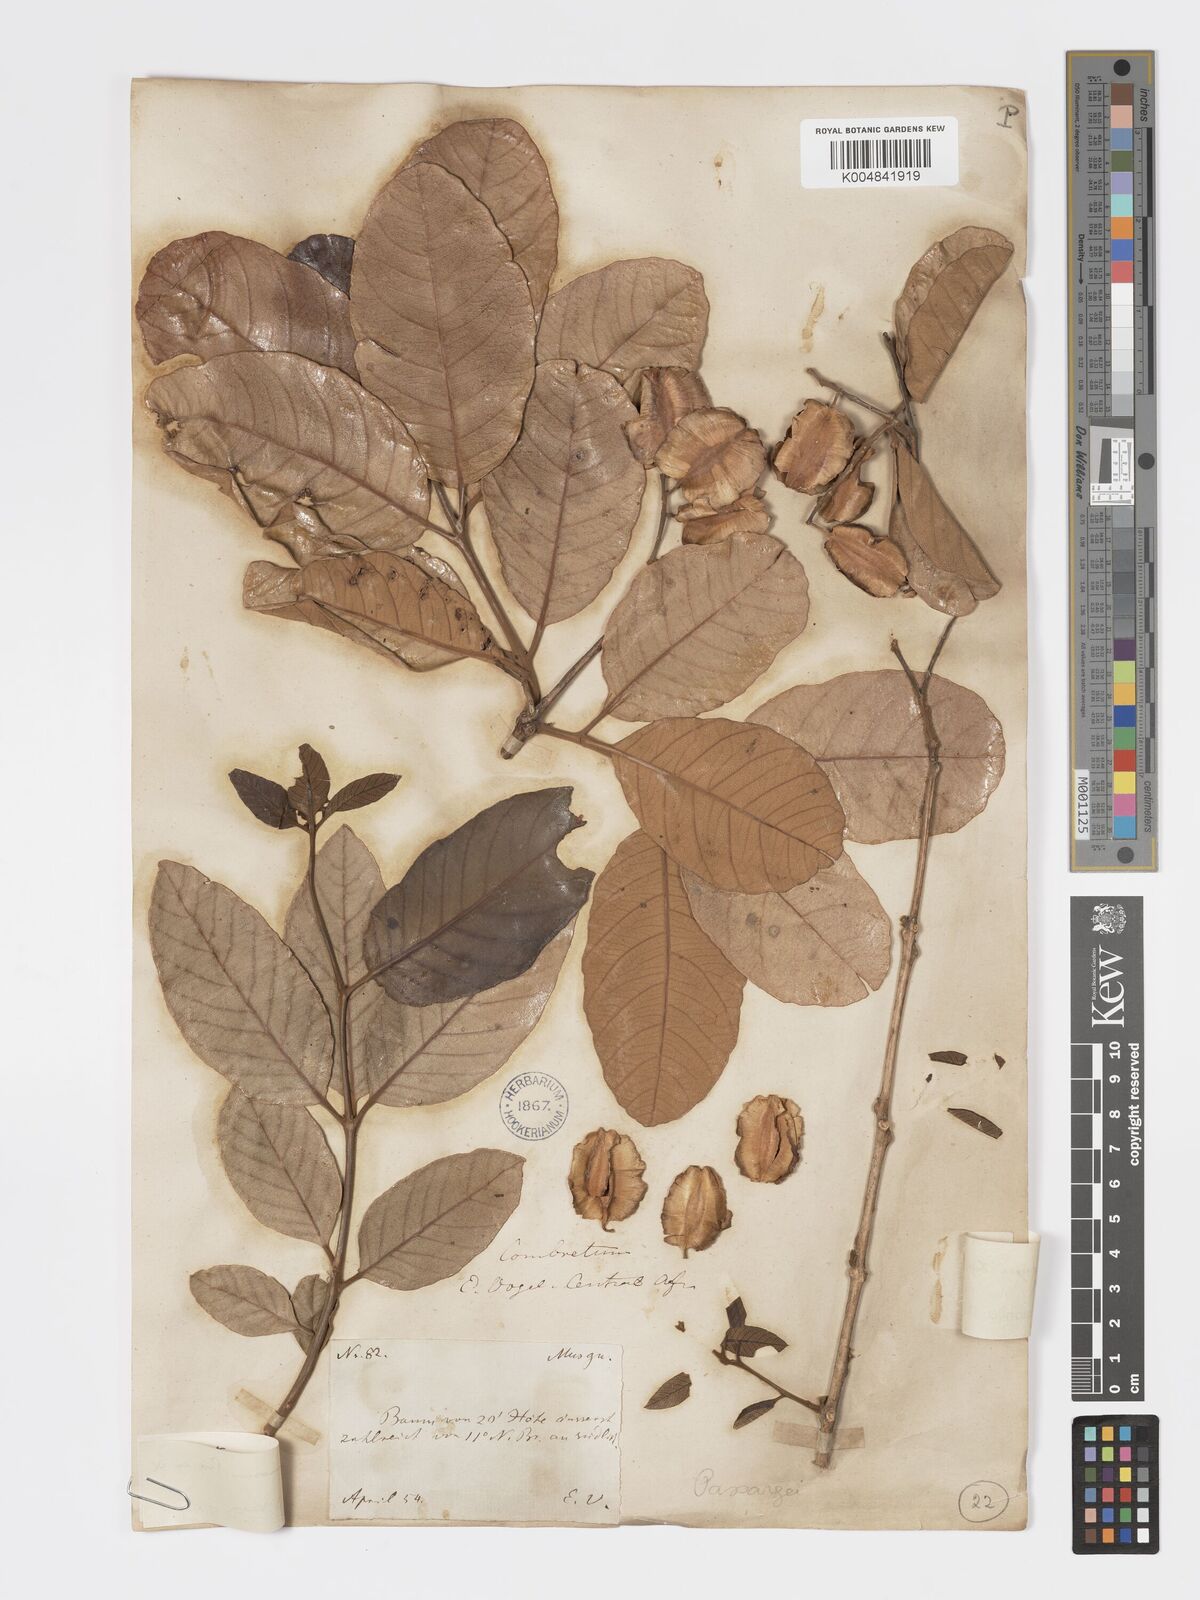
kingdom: Plantae
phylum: Tracheophyta
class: Magnoliopsida
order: Myrtales
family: Combretaceae
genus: Combretum
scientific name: Combretum
